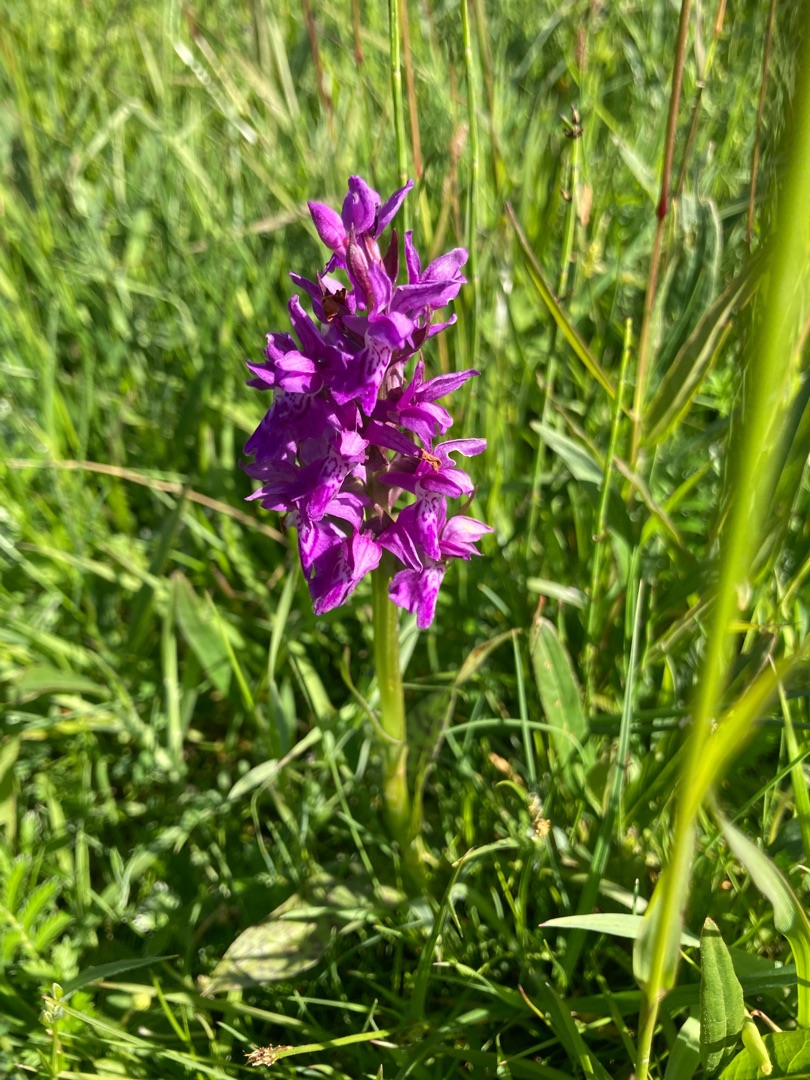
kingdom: Plantae
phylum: Tracheophyta
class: Liliopsida
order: Asparagales
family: Orchidaceae
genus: Dactylorhiza
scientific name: Dactylorhiza majalis
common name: Maj-gøgeurt
